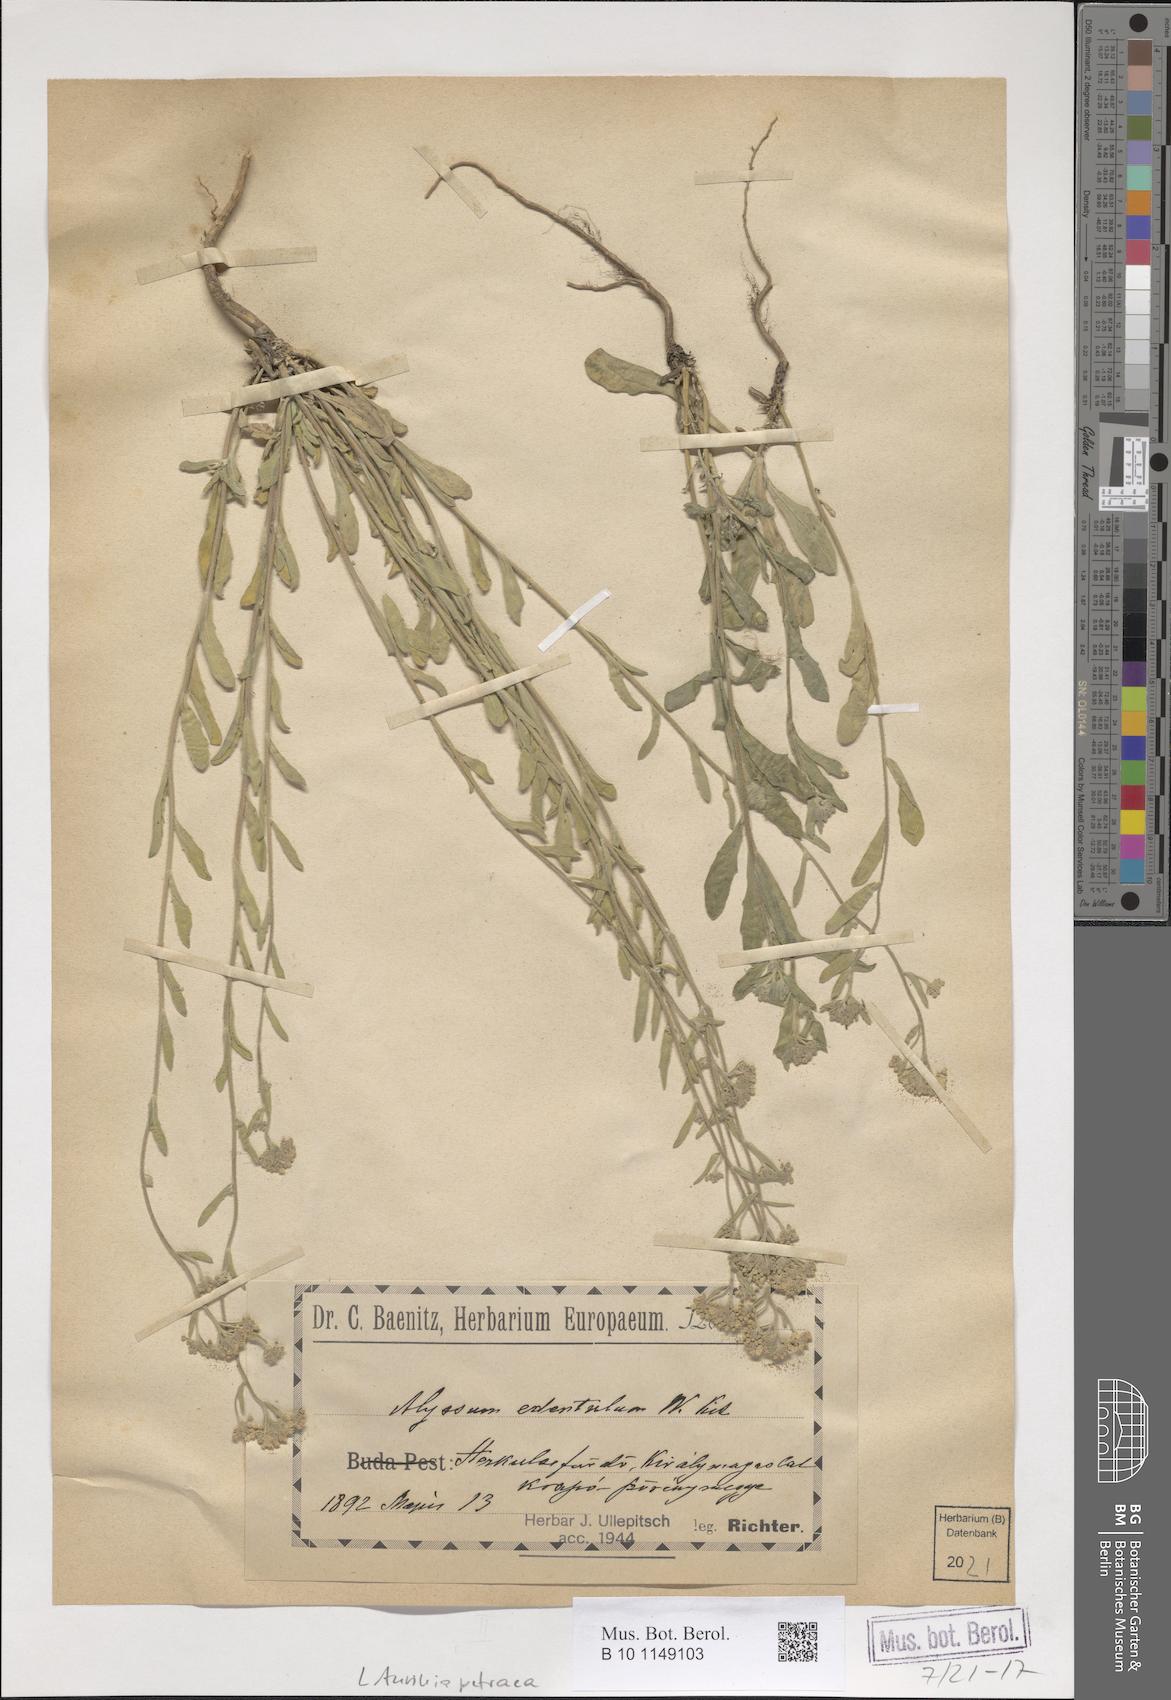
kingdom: Plantae
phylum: Tracheophyta
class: Magnoliopsida
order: Brassicales
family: Brassicaceae
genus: Aurinia
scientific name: Aurinia petraea
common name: Goldentuft
